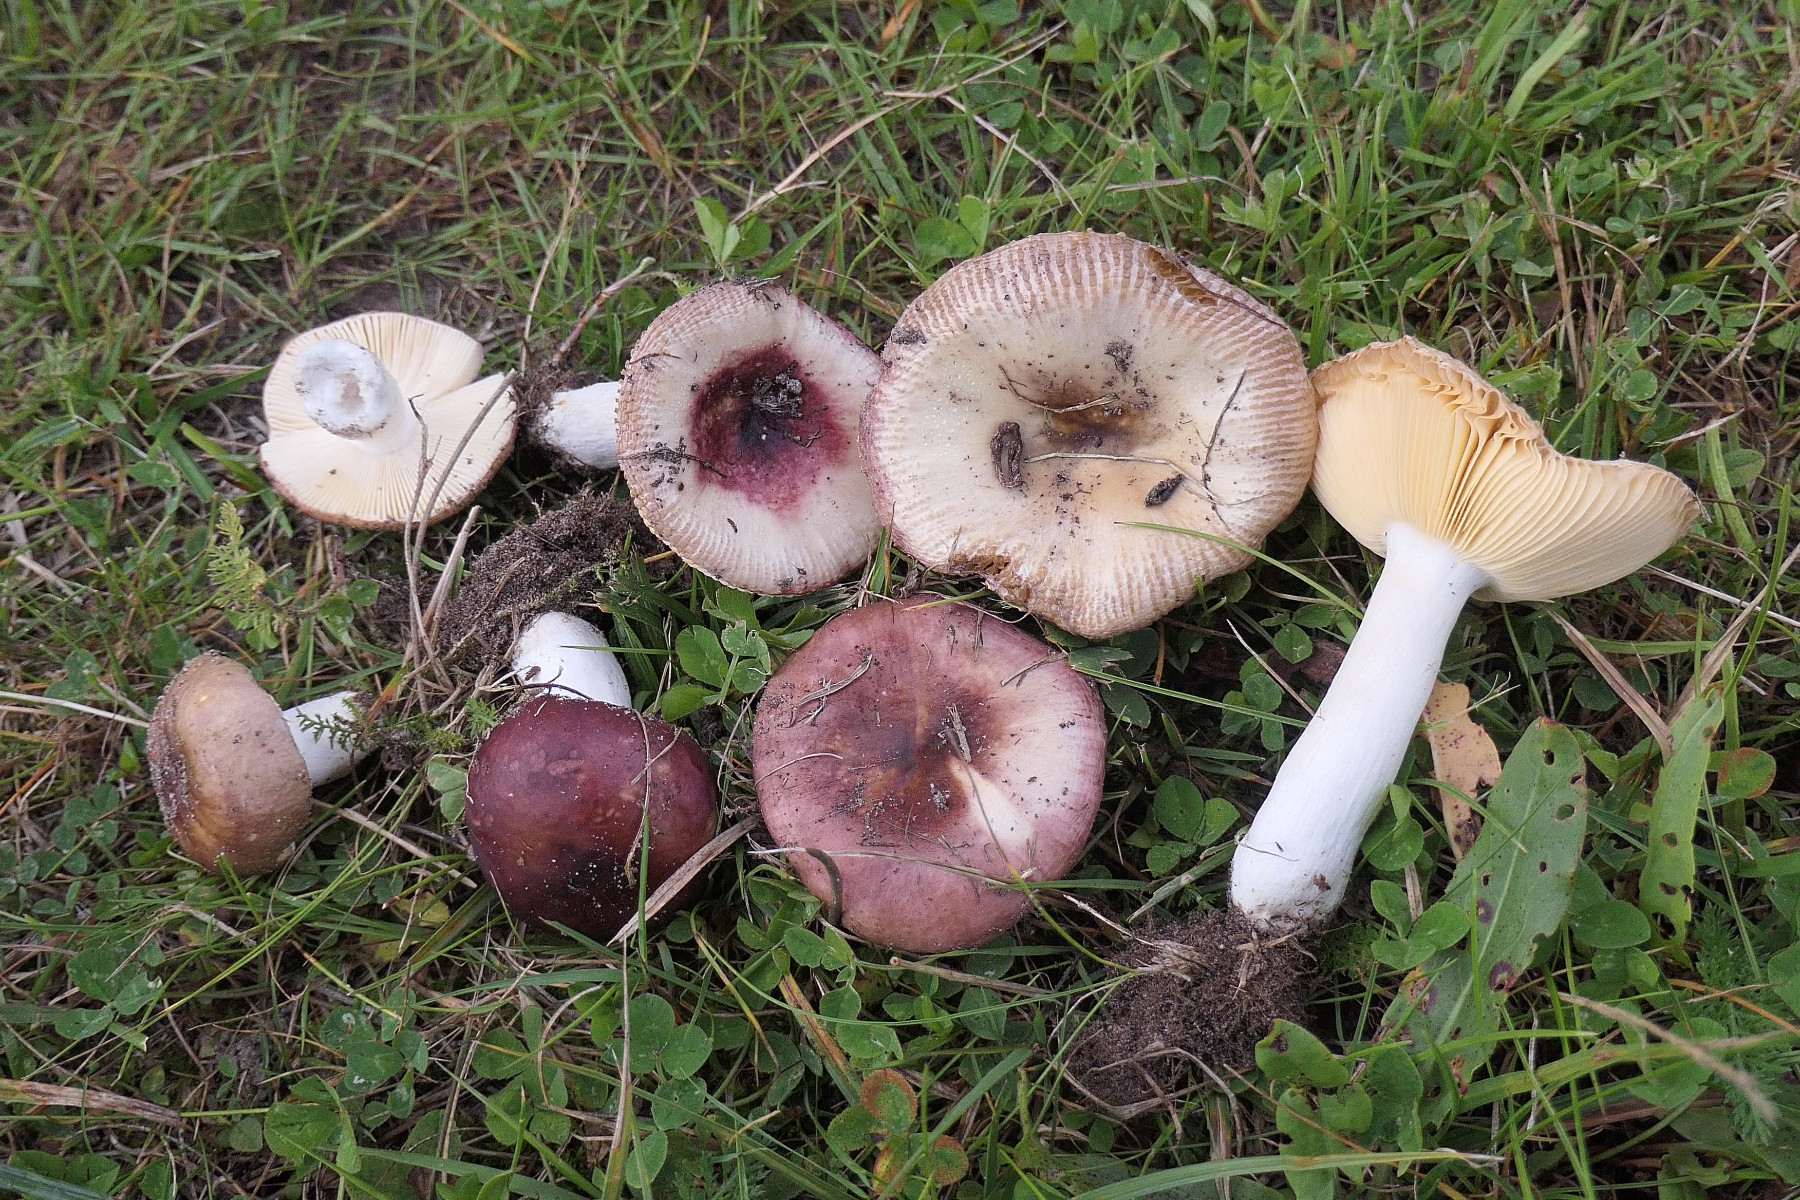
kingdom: Fungi
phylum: Basidiomycota
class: Agaricomycetes
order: Russulales
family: Russulaceae
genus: Russula
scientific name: Russula cessans
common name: fyrre-skørhat
